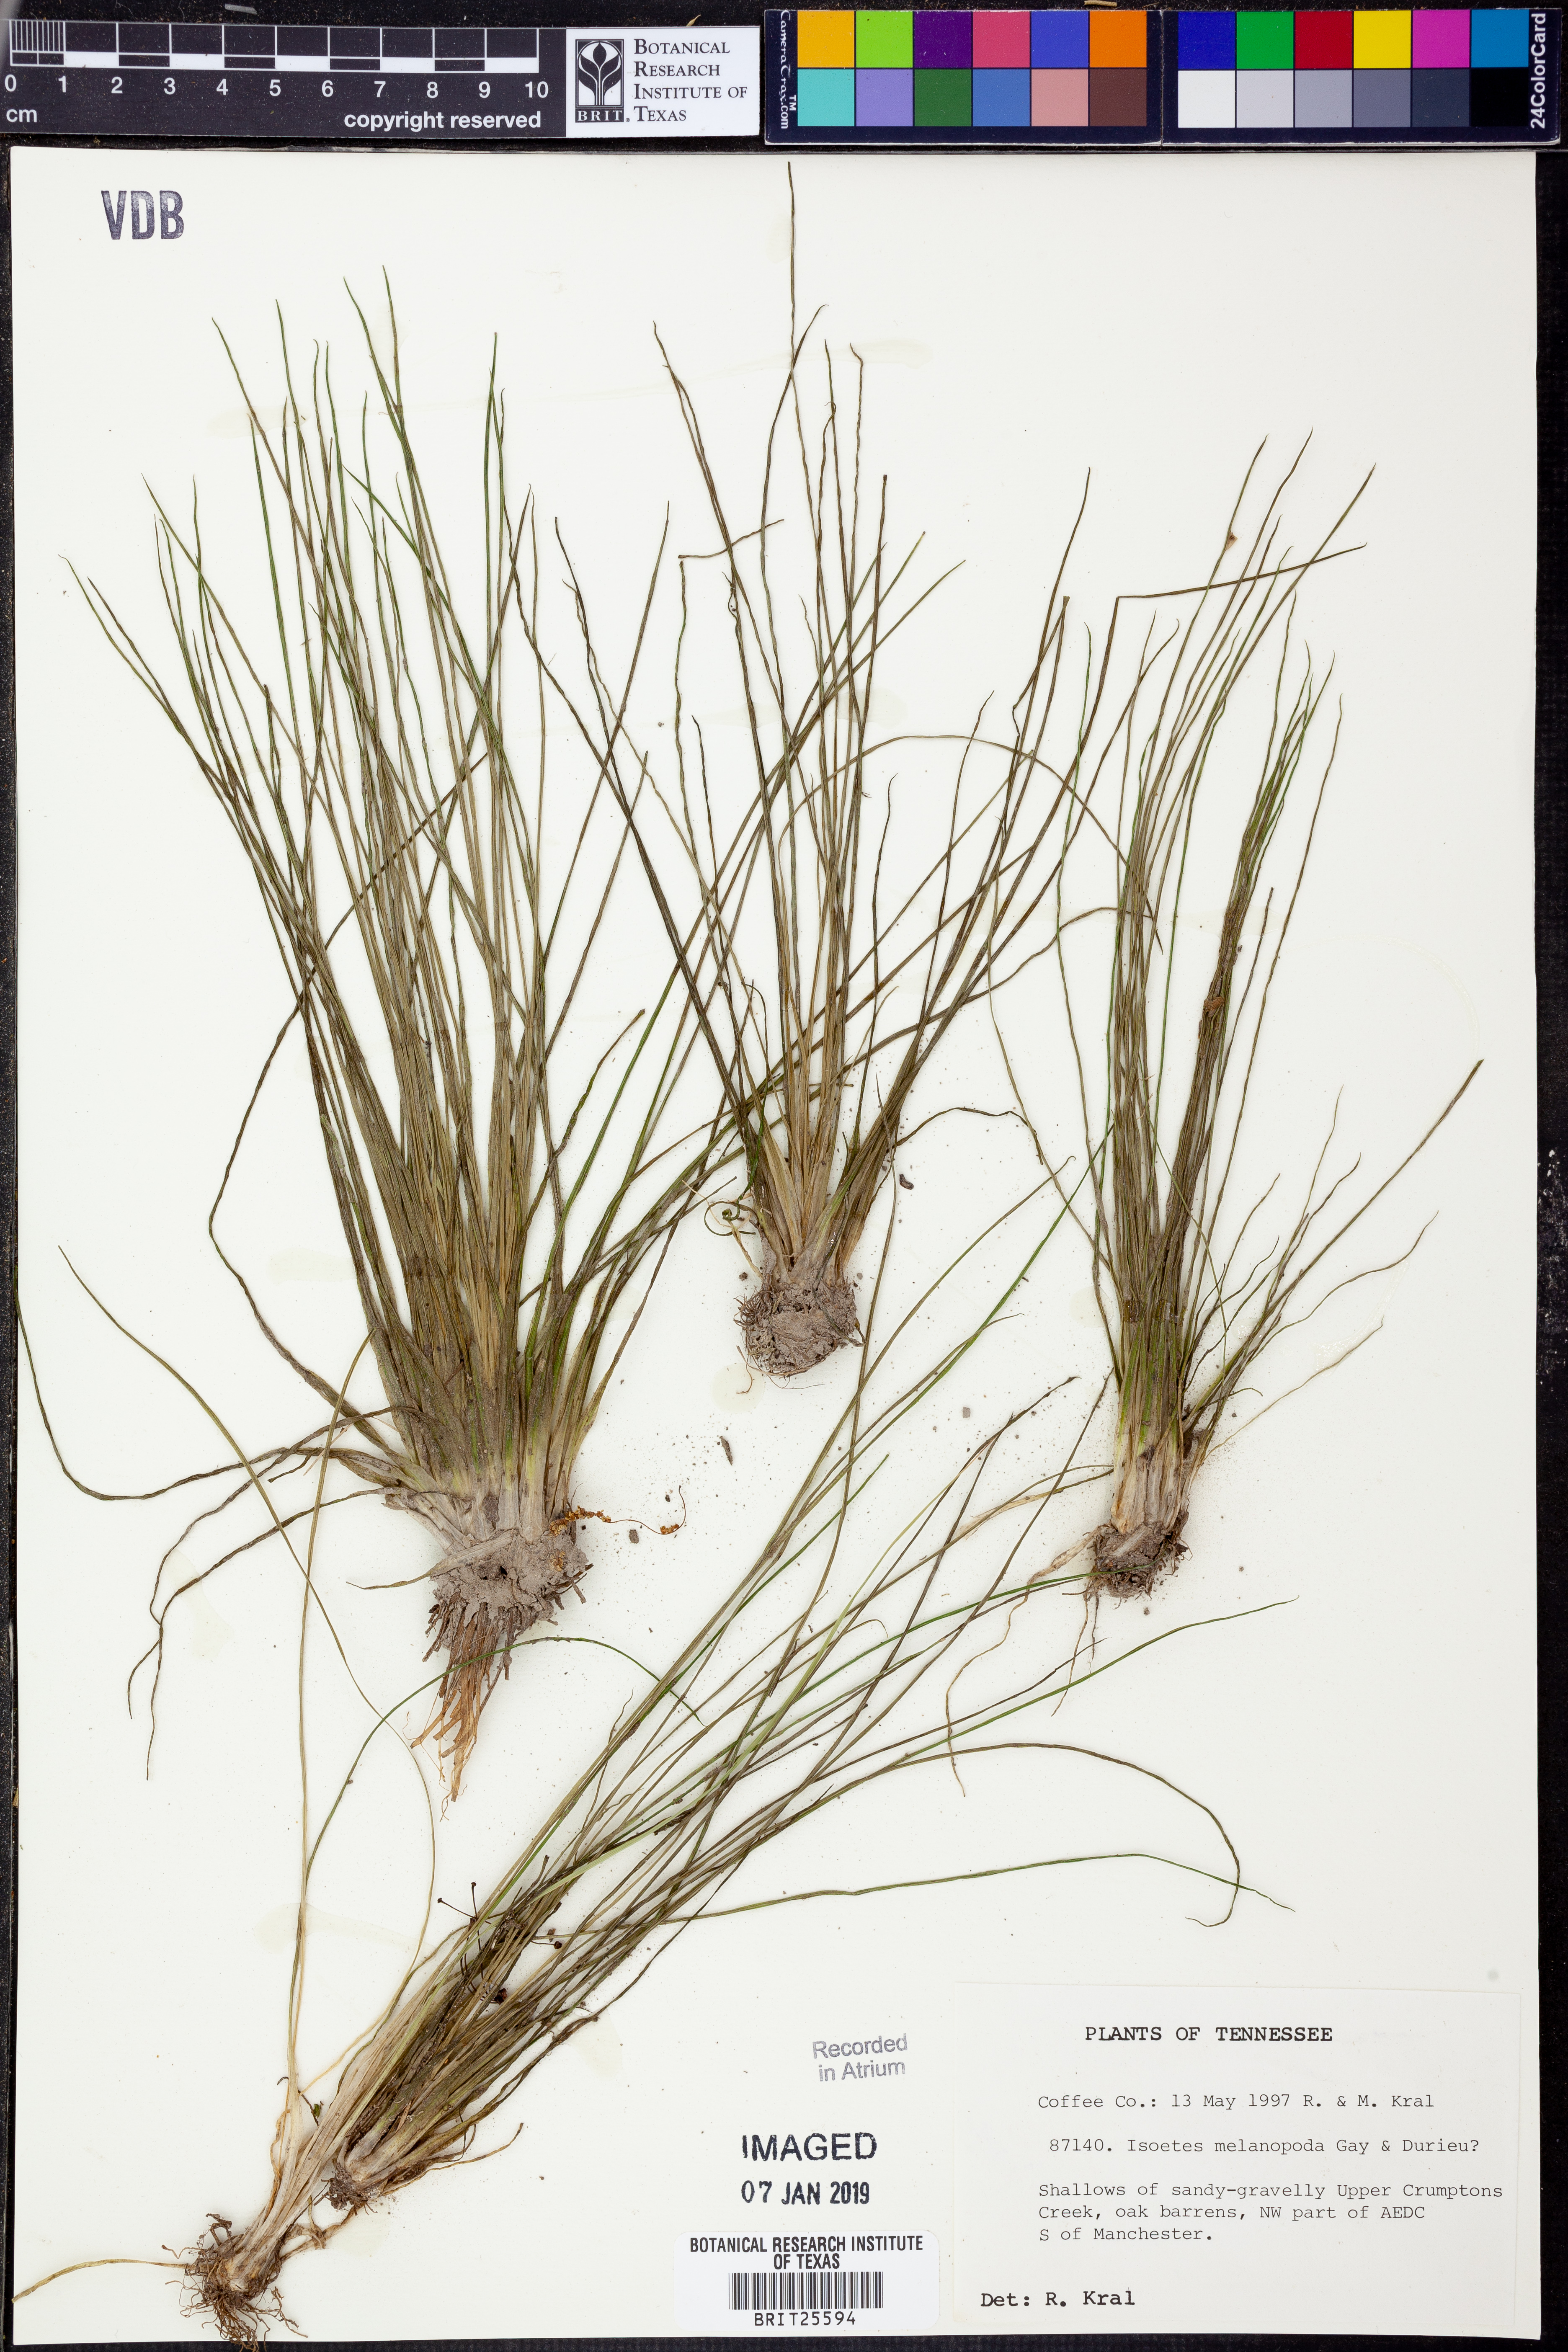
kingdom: Plantae
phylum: Tracheophyta
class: Lycopodiopsida
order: Isoetales
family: Isoetaceae
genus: Isoetes
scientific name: Isoetes melanopoda
